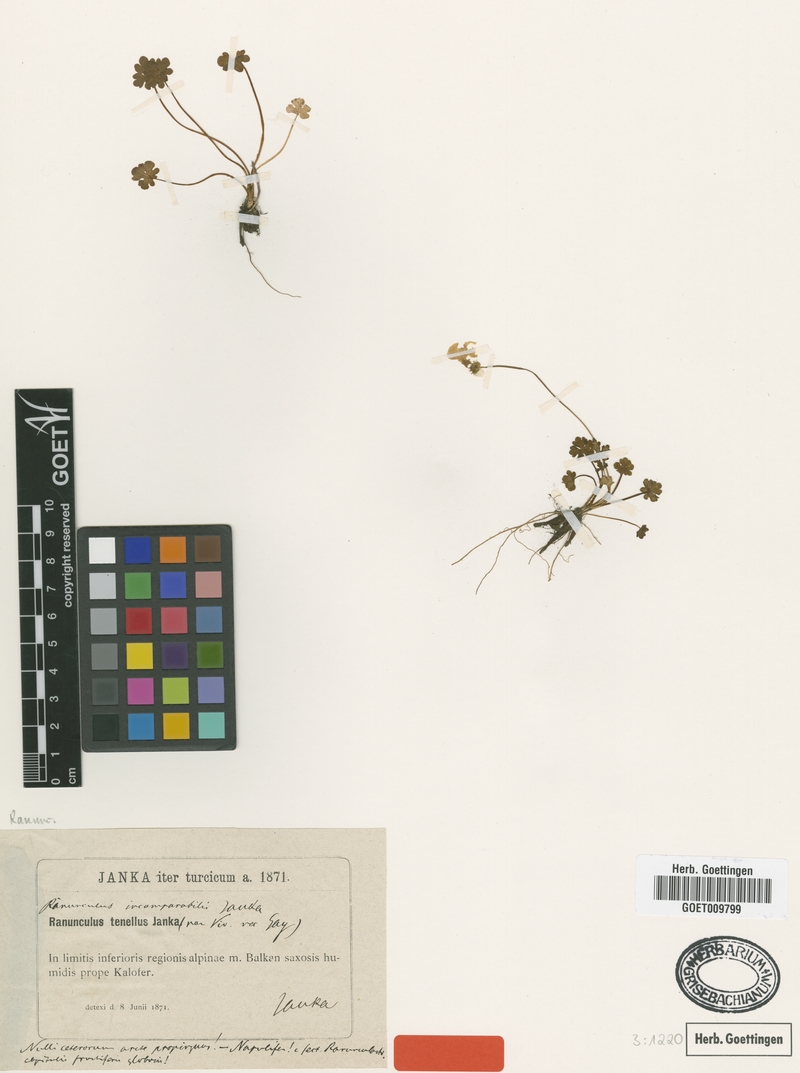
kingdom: Plantae
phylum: Tracheophyta
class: Magnoliopsida
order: Ranunculales
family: Ranunculaceae
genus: Ranunculus
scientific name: Ranunculus incomparabilis
